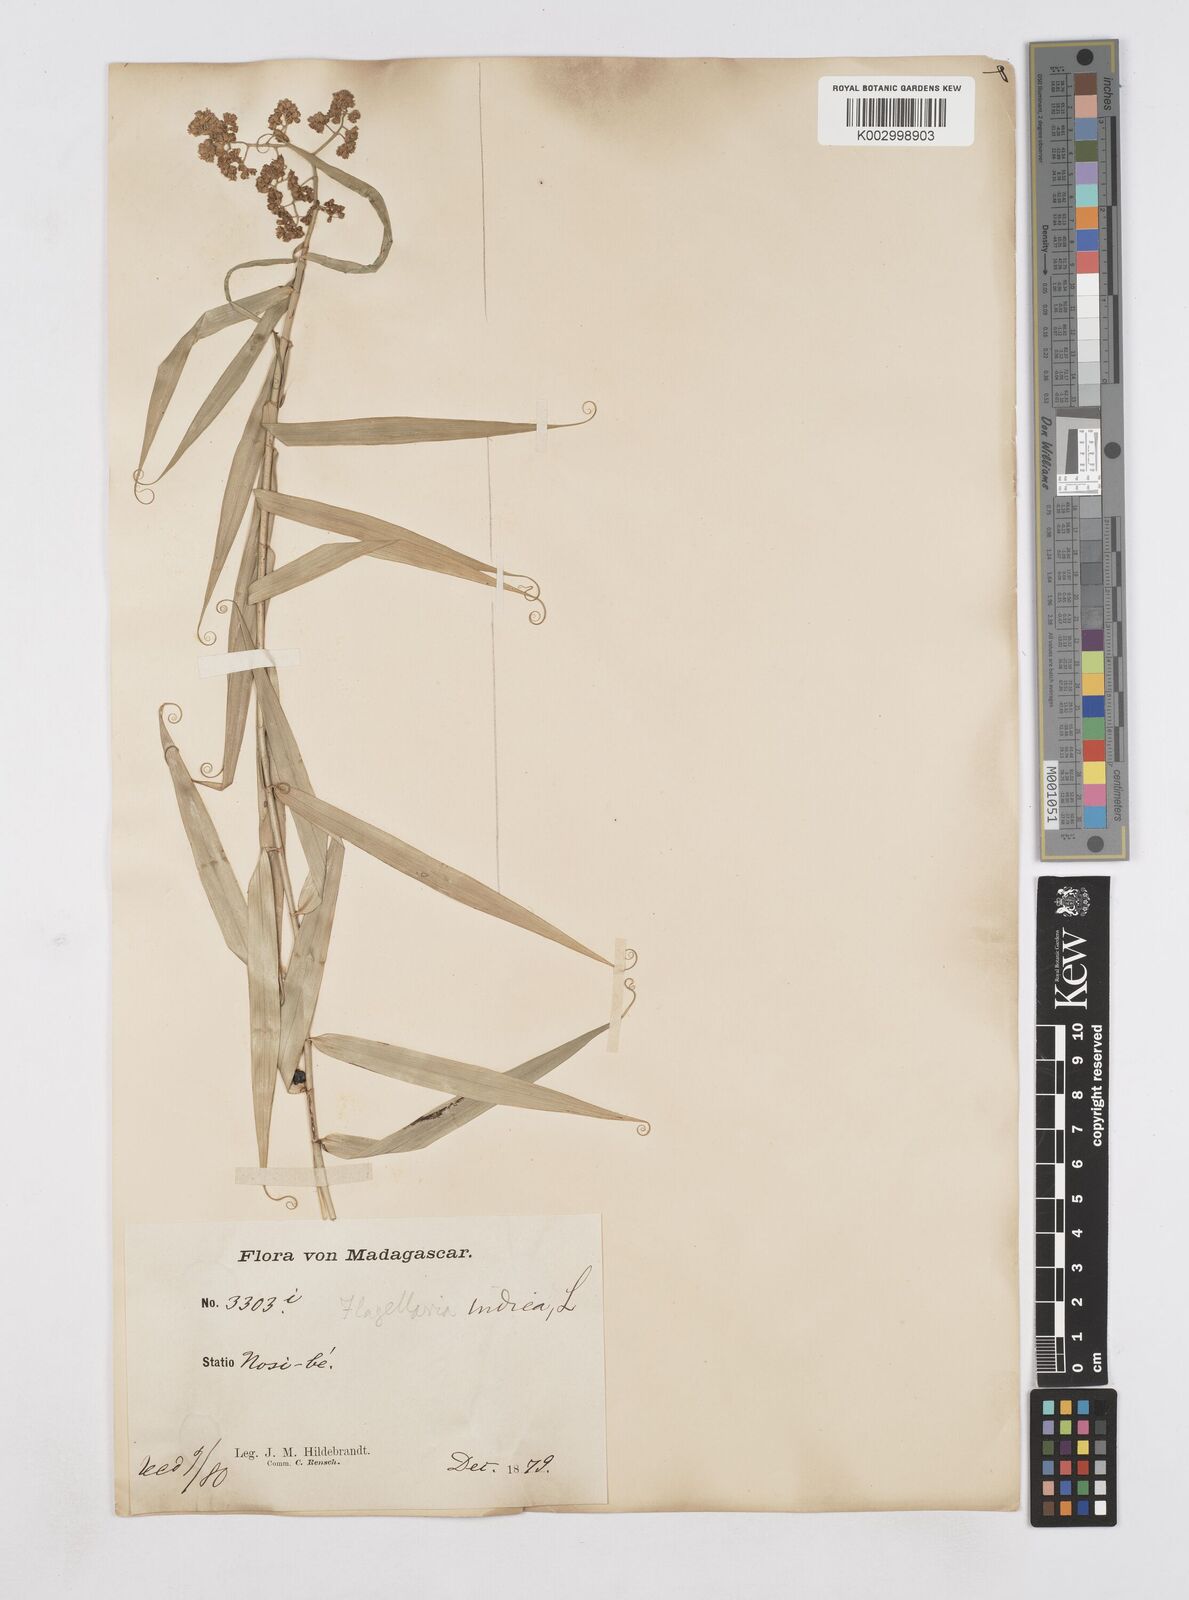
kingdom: Plantae
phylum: Tracheophyta
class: Liliopsida
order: Poales
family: Flagellariaceae
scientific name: Flagellariaceae
